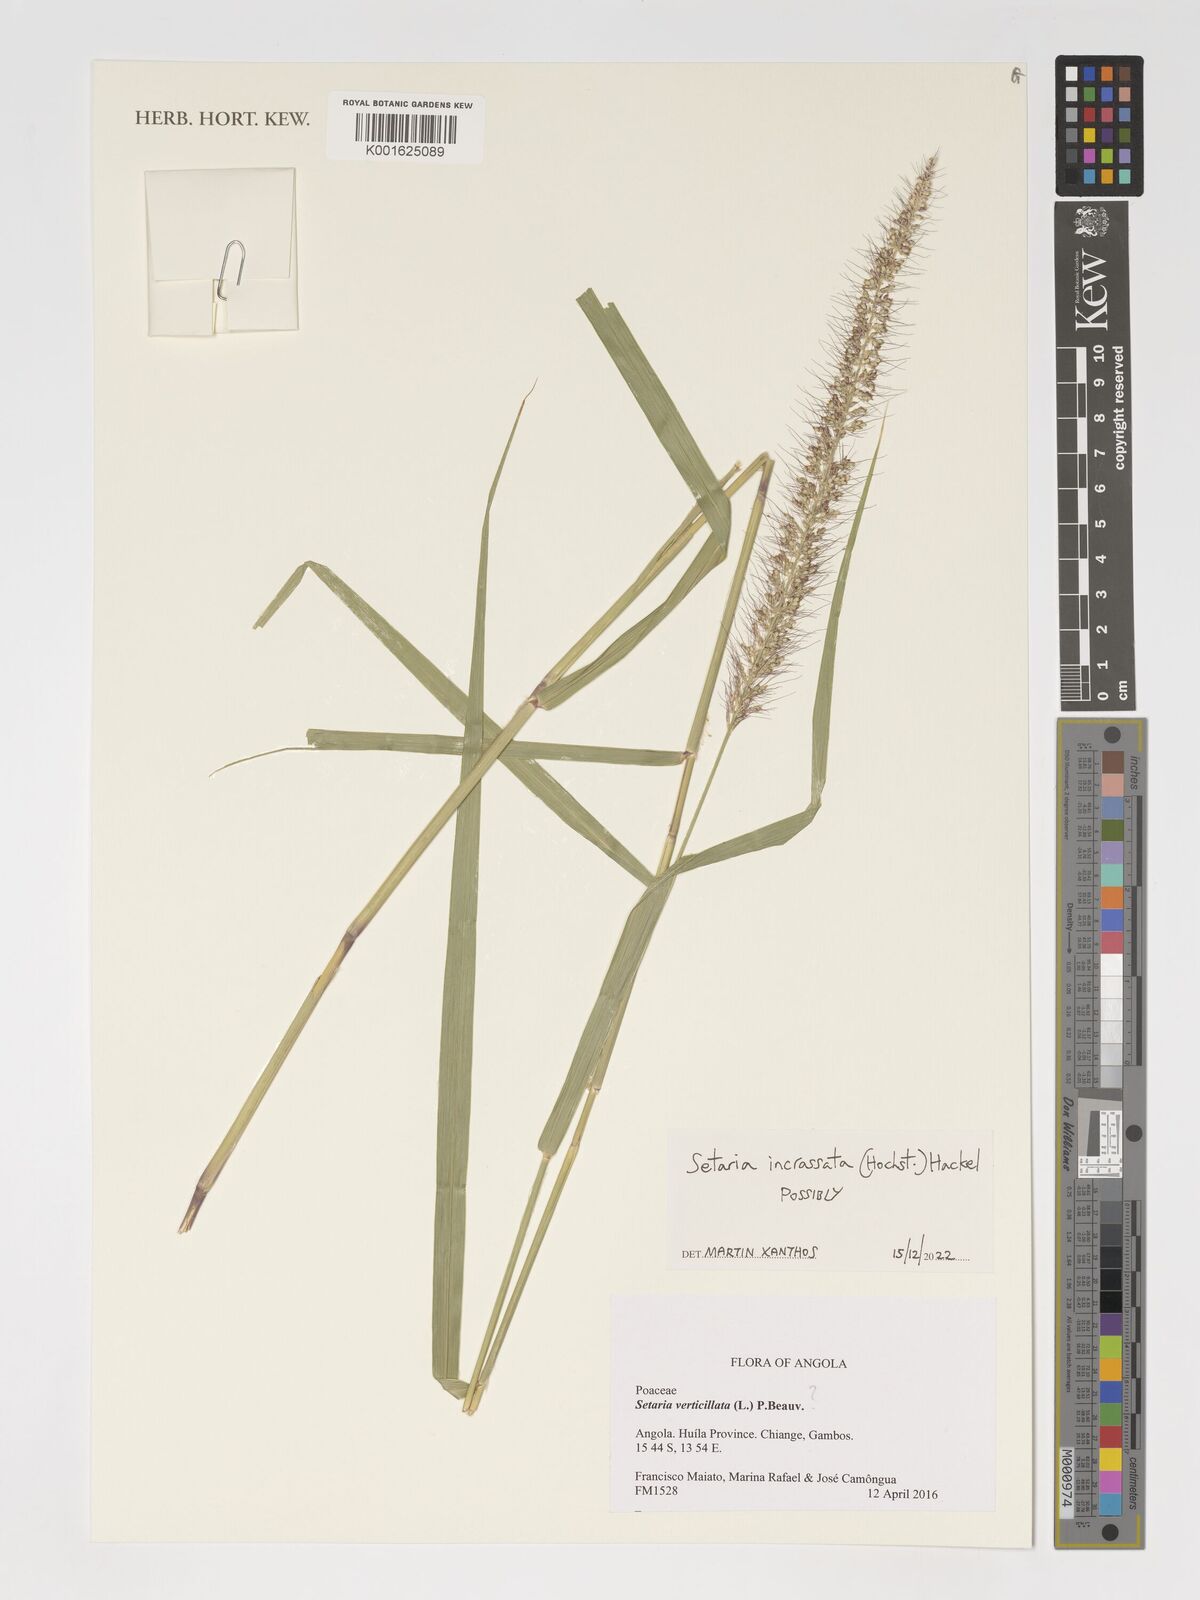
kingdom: Plantae
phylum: Tracheophyta
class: Liliopsida
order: Poales
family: Poaceae
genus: Setaria
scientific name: Setaria incrassata
